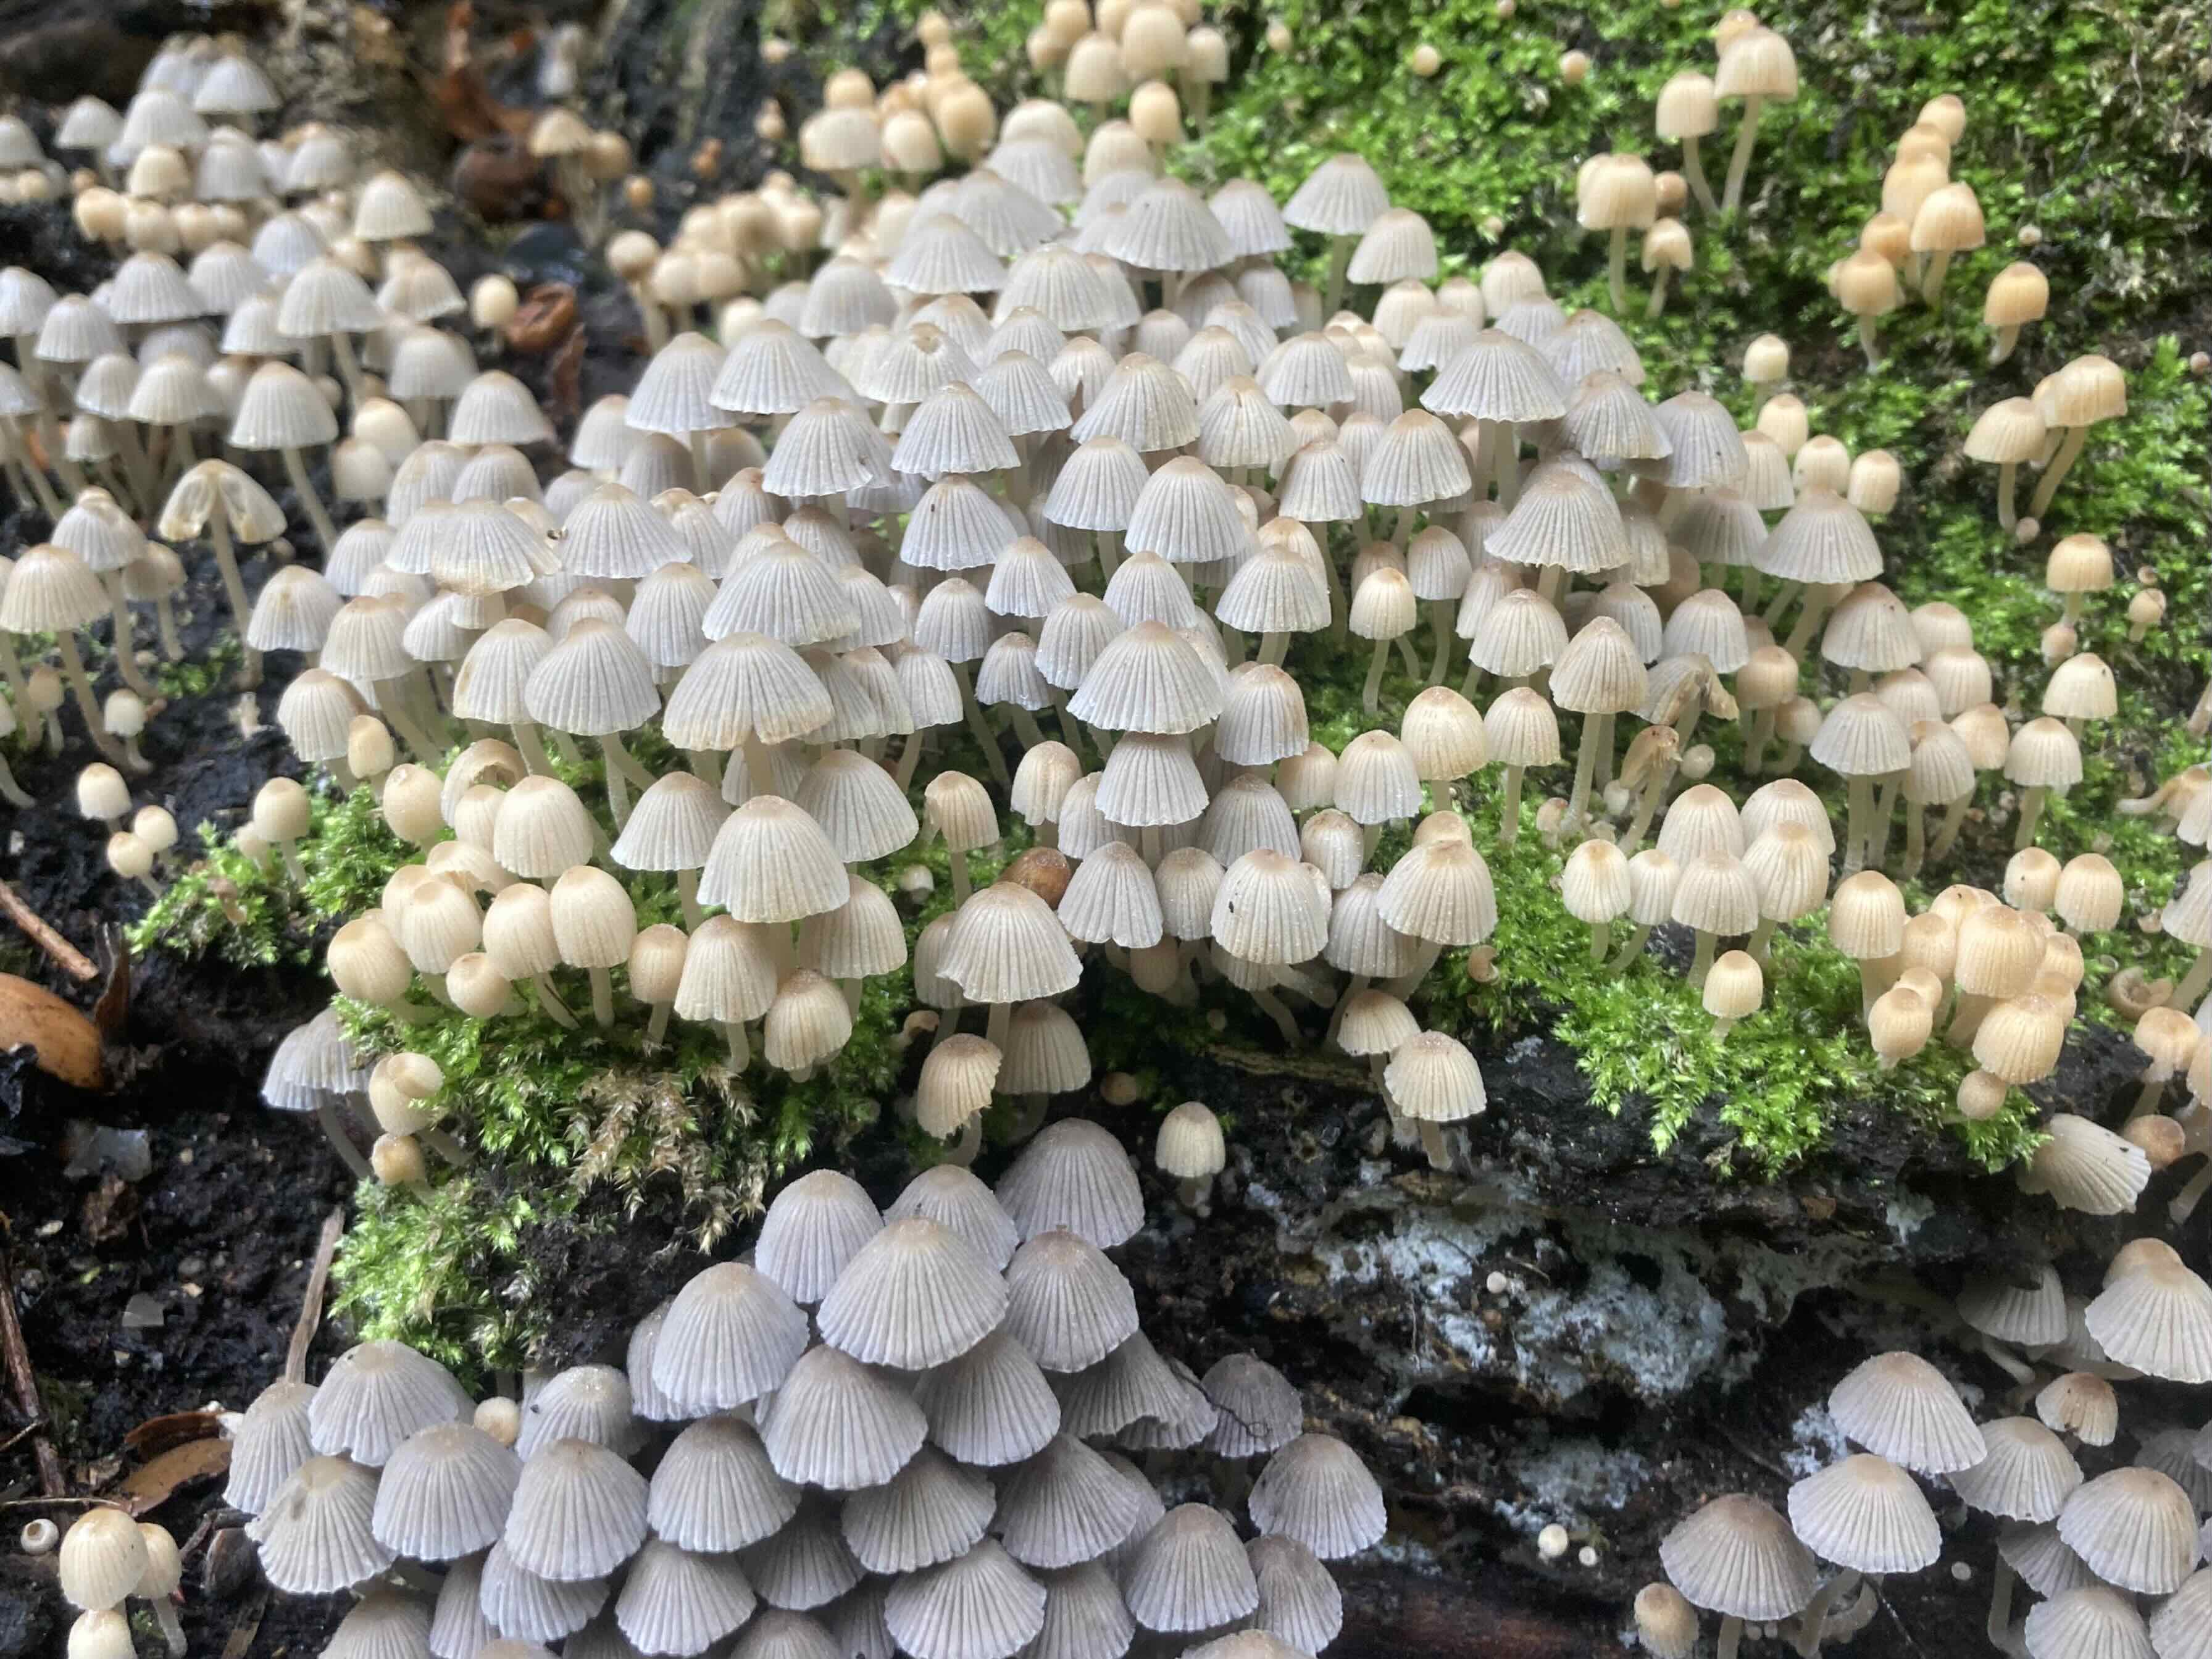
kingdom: Fungi
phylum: Basidiomycota
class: Agaricomycetes
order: Agaricales
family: Psathyrellaceae
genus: Coprinellus
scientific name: Coprinellus disseminatus
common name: bredsået blækhat
